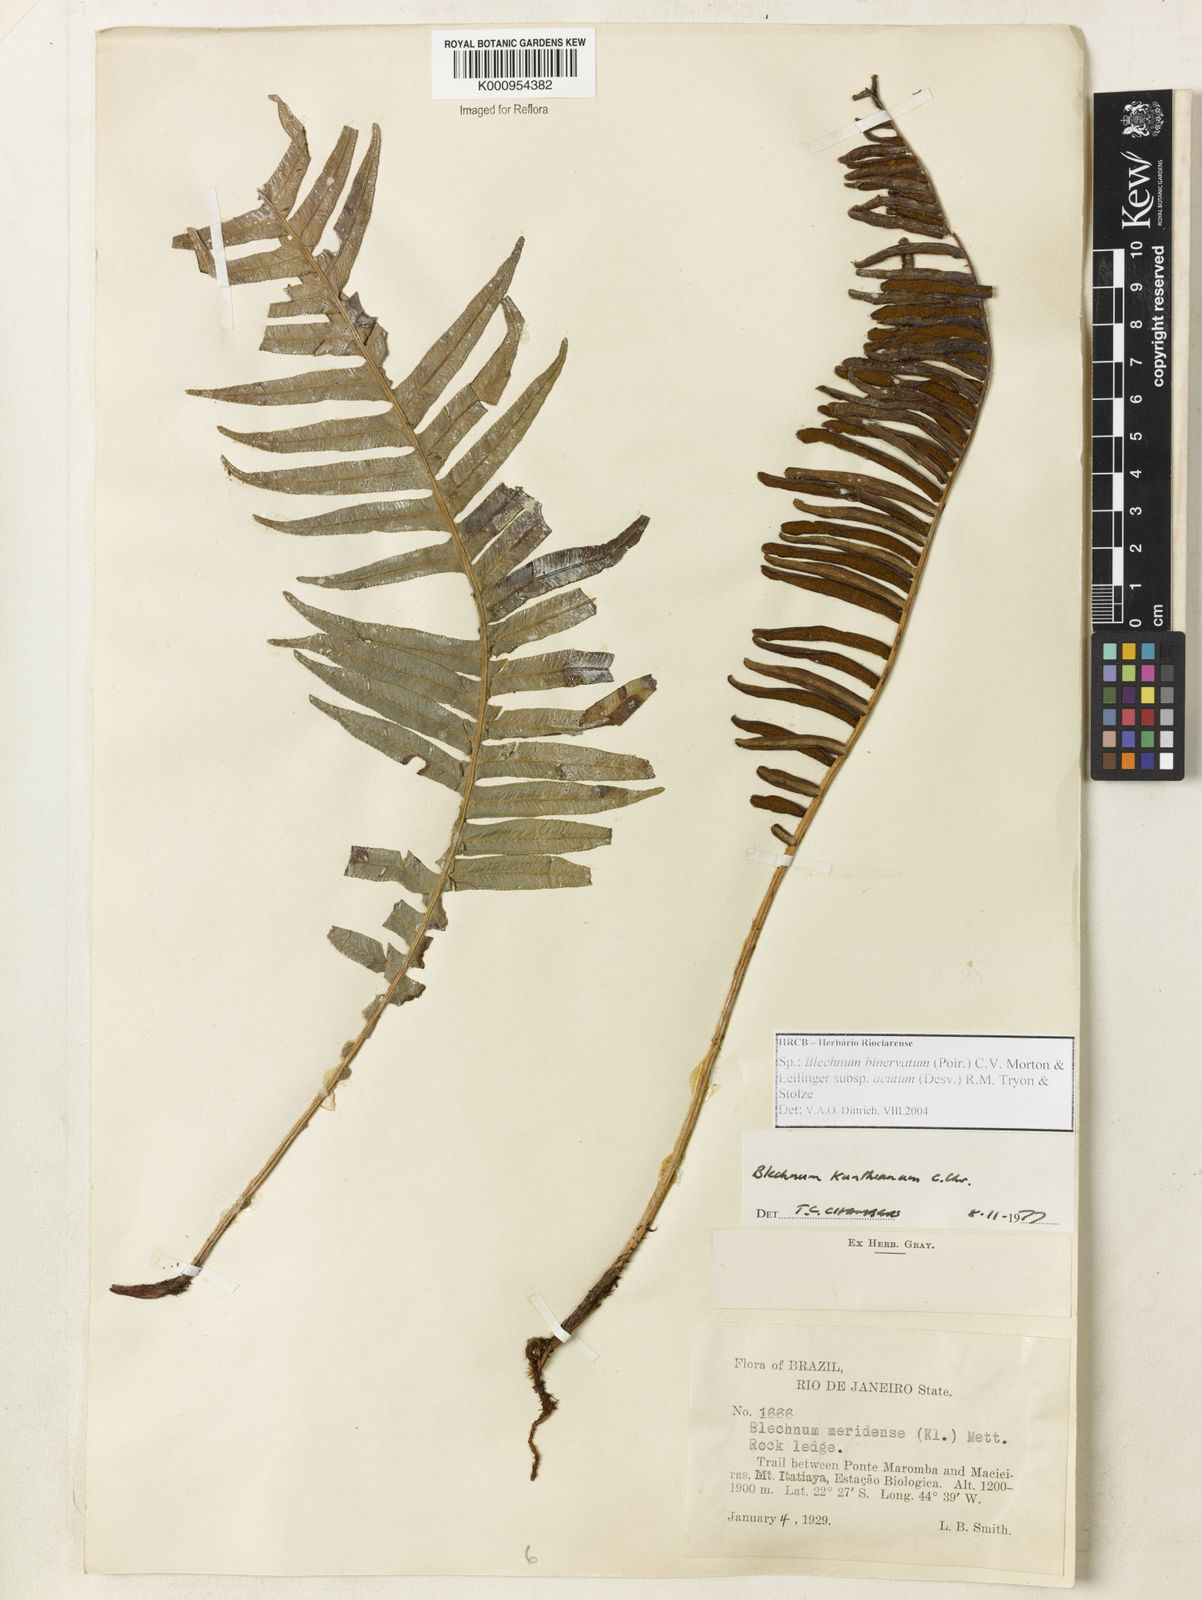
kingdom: Plantae
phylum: Tracheophyta
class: Polypodiopsida
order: Polypodiales
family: Blechnaceae
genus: Lomaridium
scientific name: Lomaridium acutum
